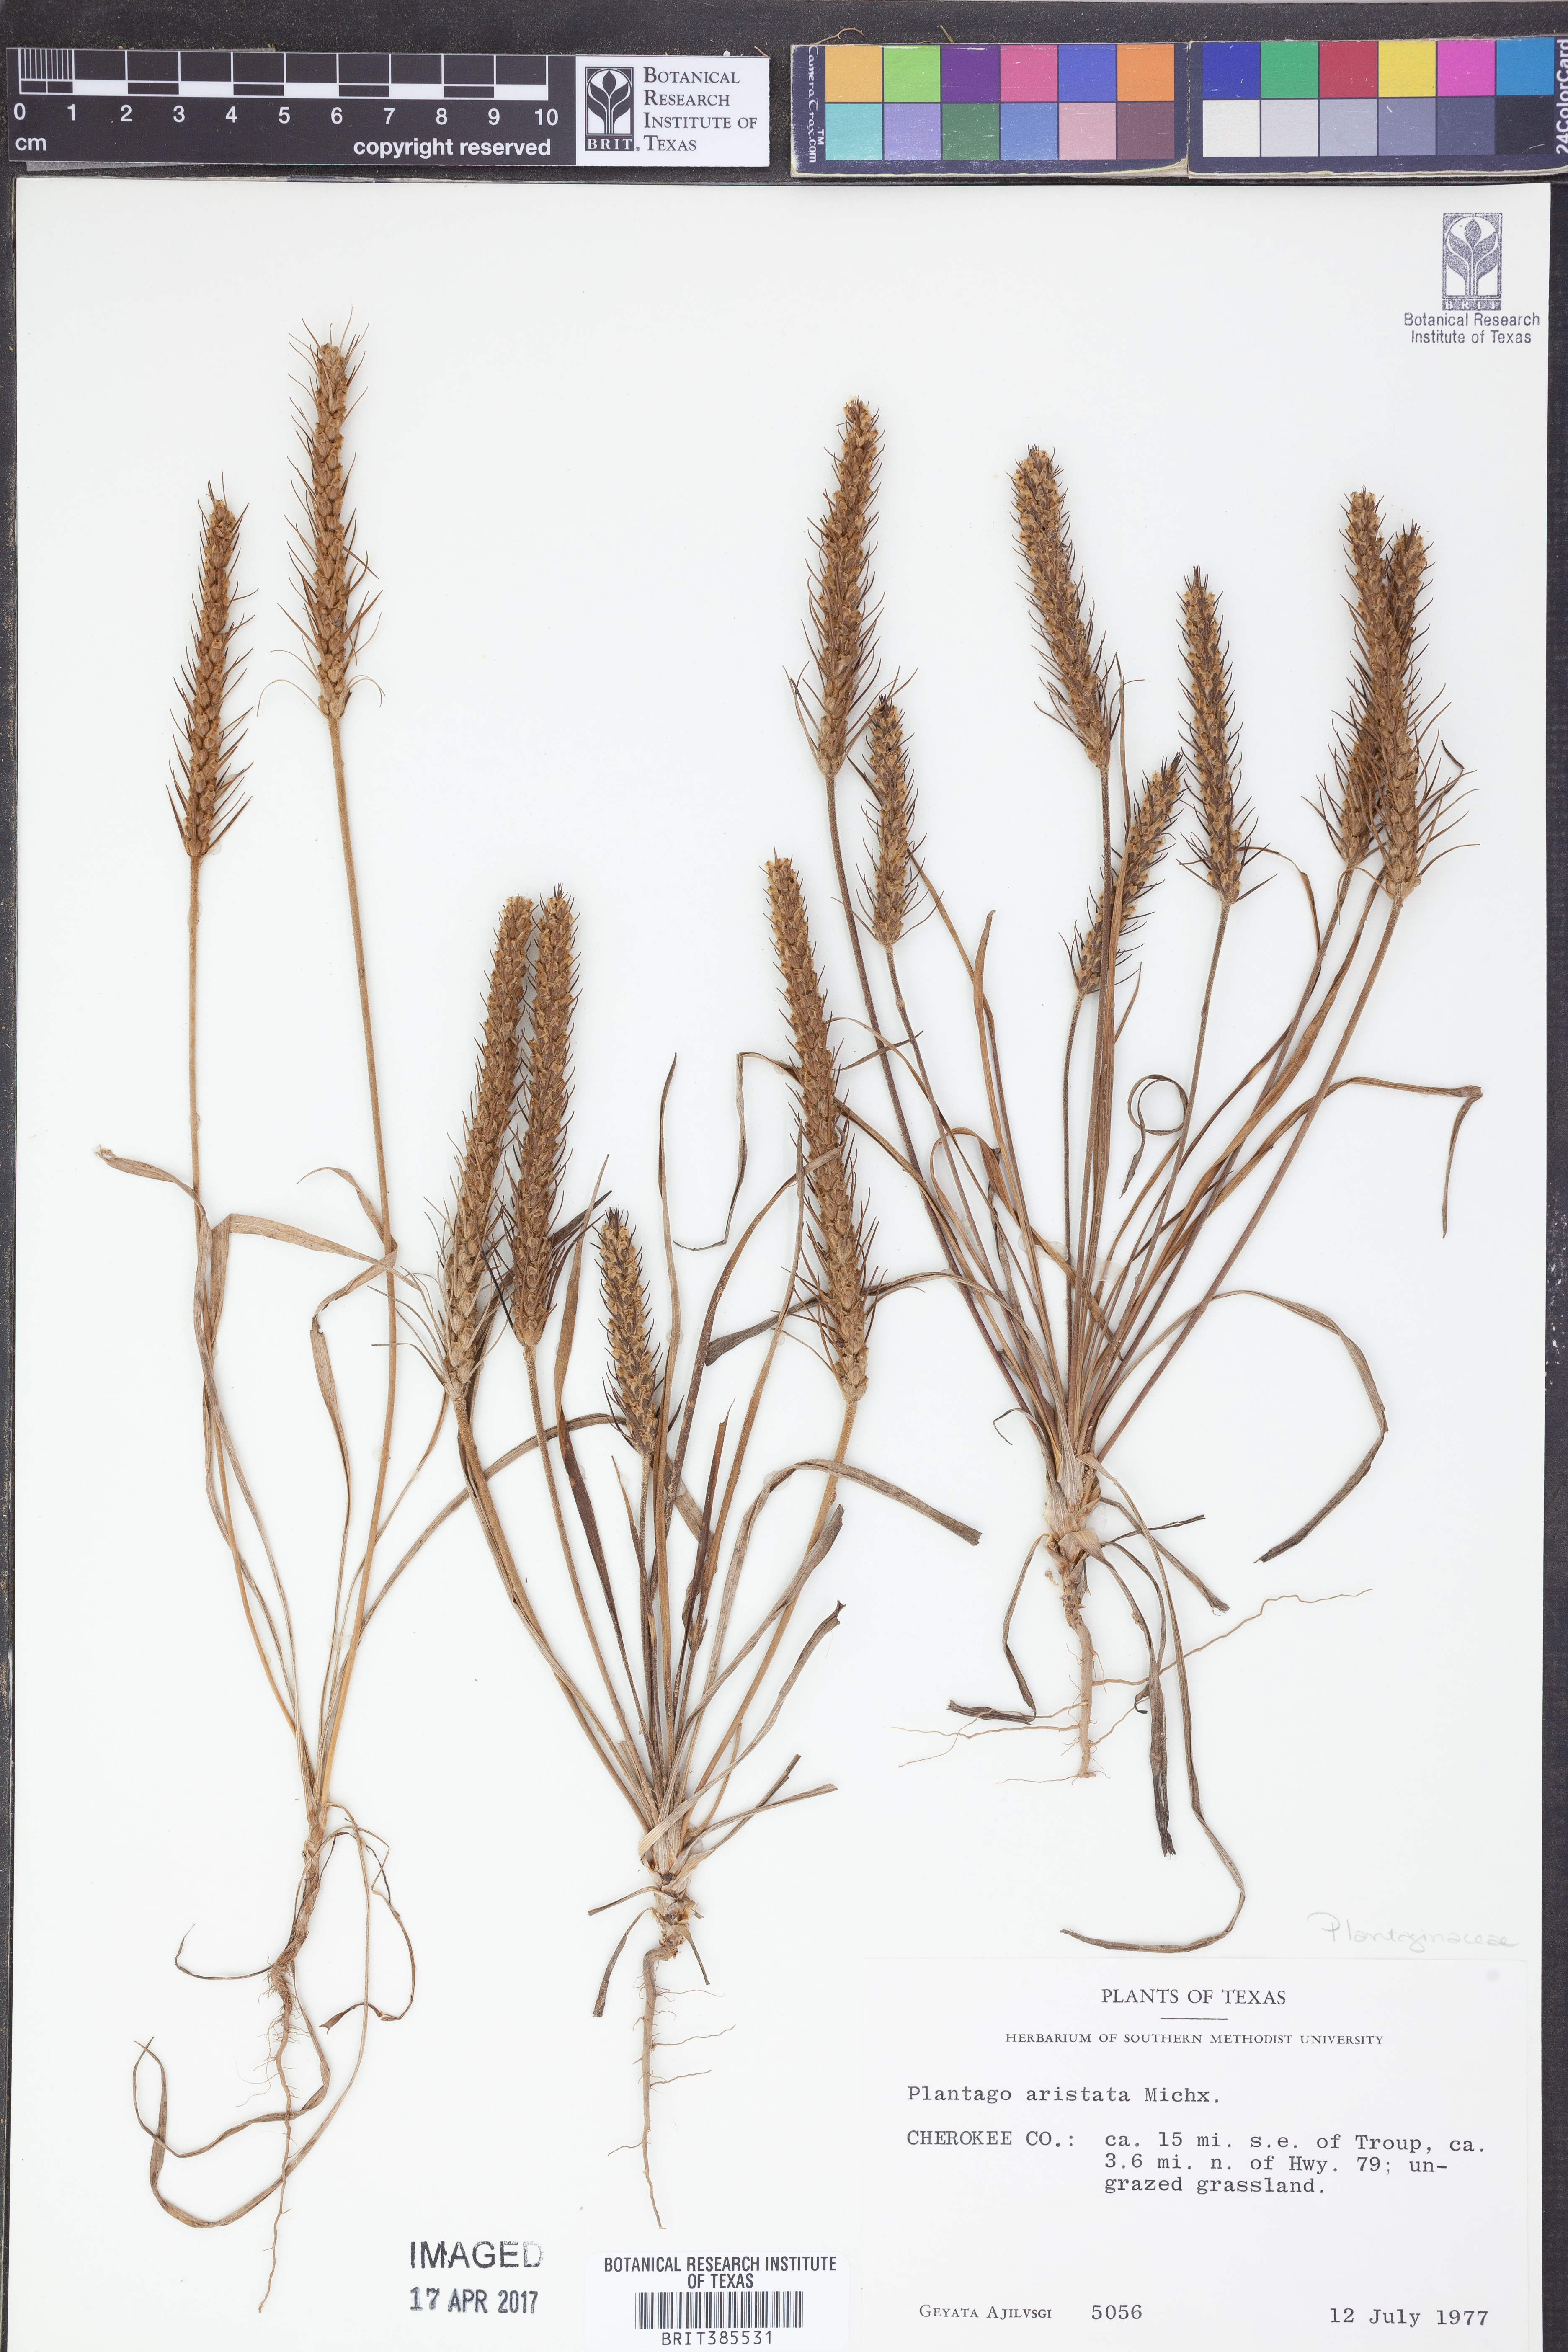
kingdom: Plantae
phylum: Tracheophyta
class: Magnoliopsida
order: Lamiales
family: Plantaginaceae
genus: Plantago
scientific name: Plantago aristata
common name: Bracted plantain
